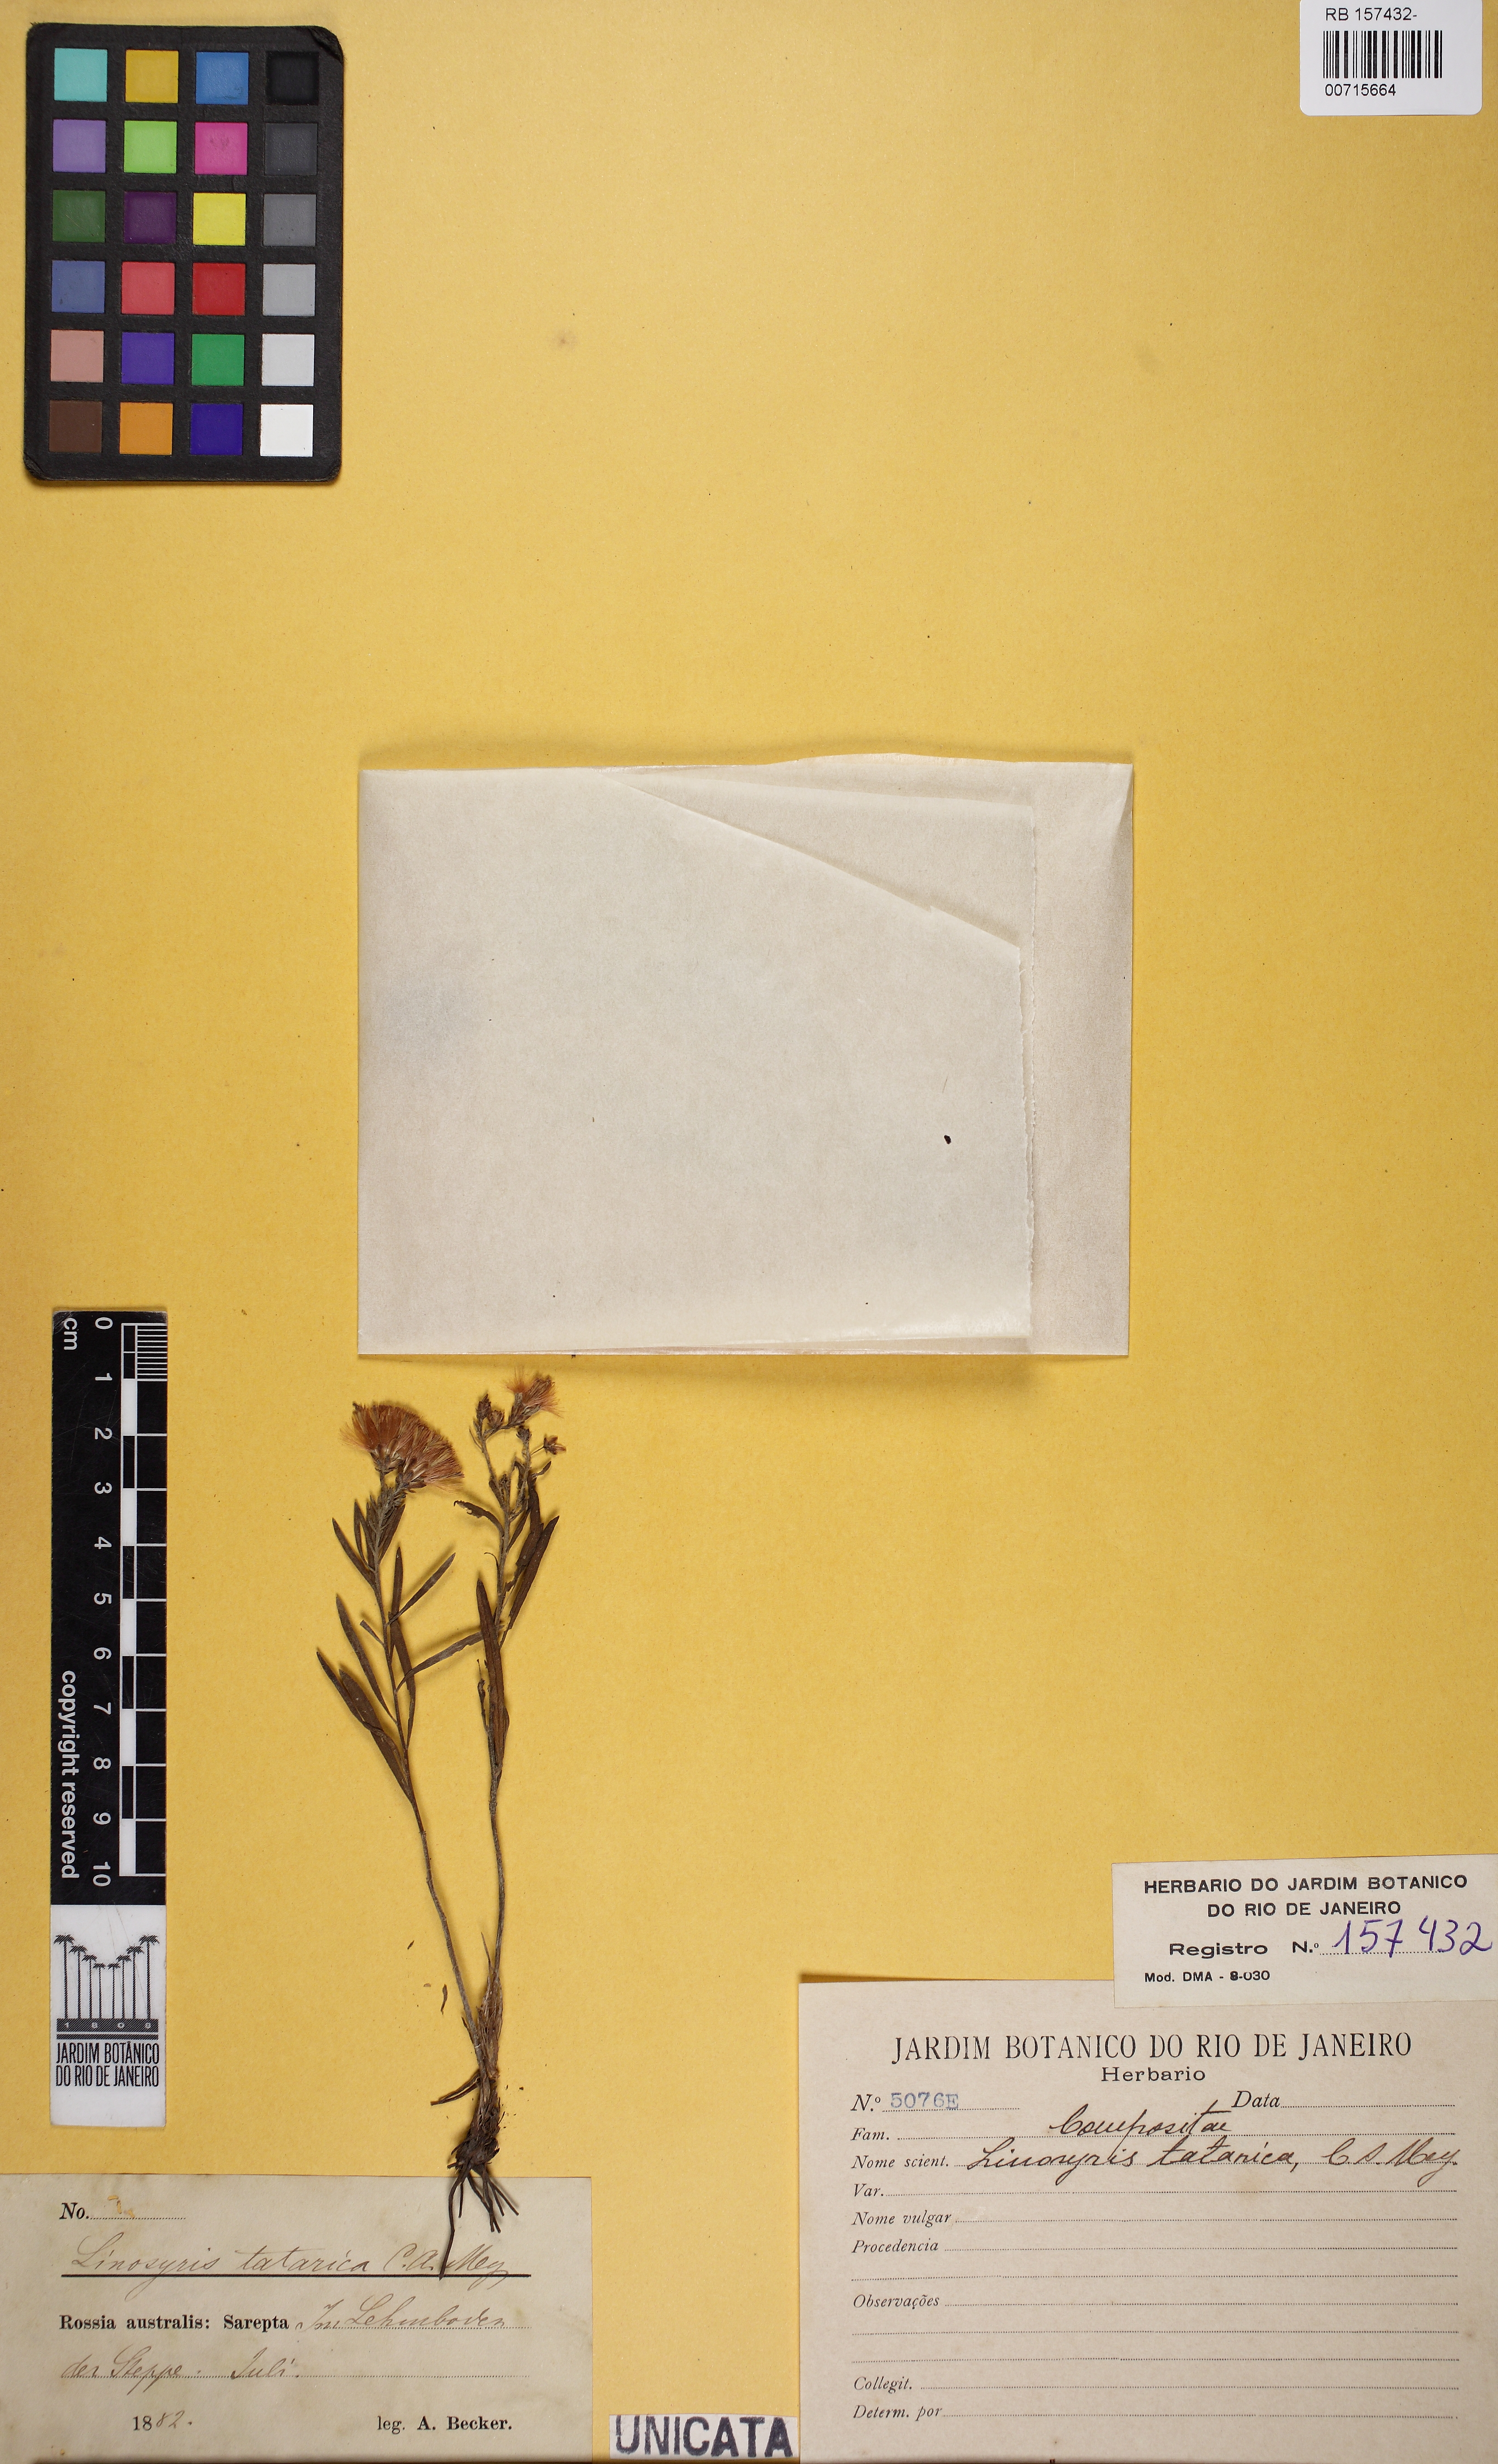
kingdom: Plantae
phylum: Tracheophyta
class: Magnoliopsida
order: Asterales
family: Asteraceae
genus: Galatella
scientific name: Galatella tatarica
